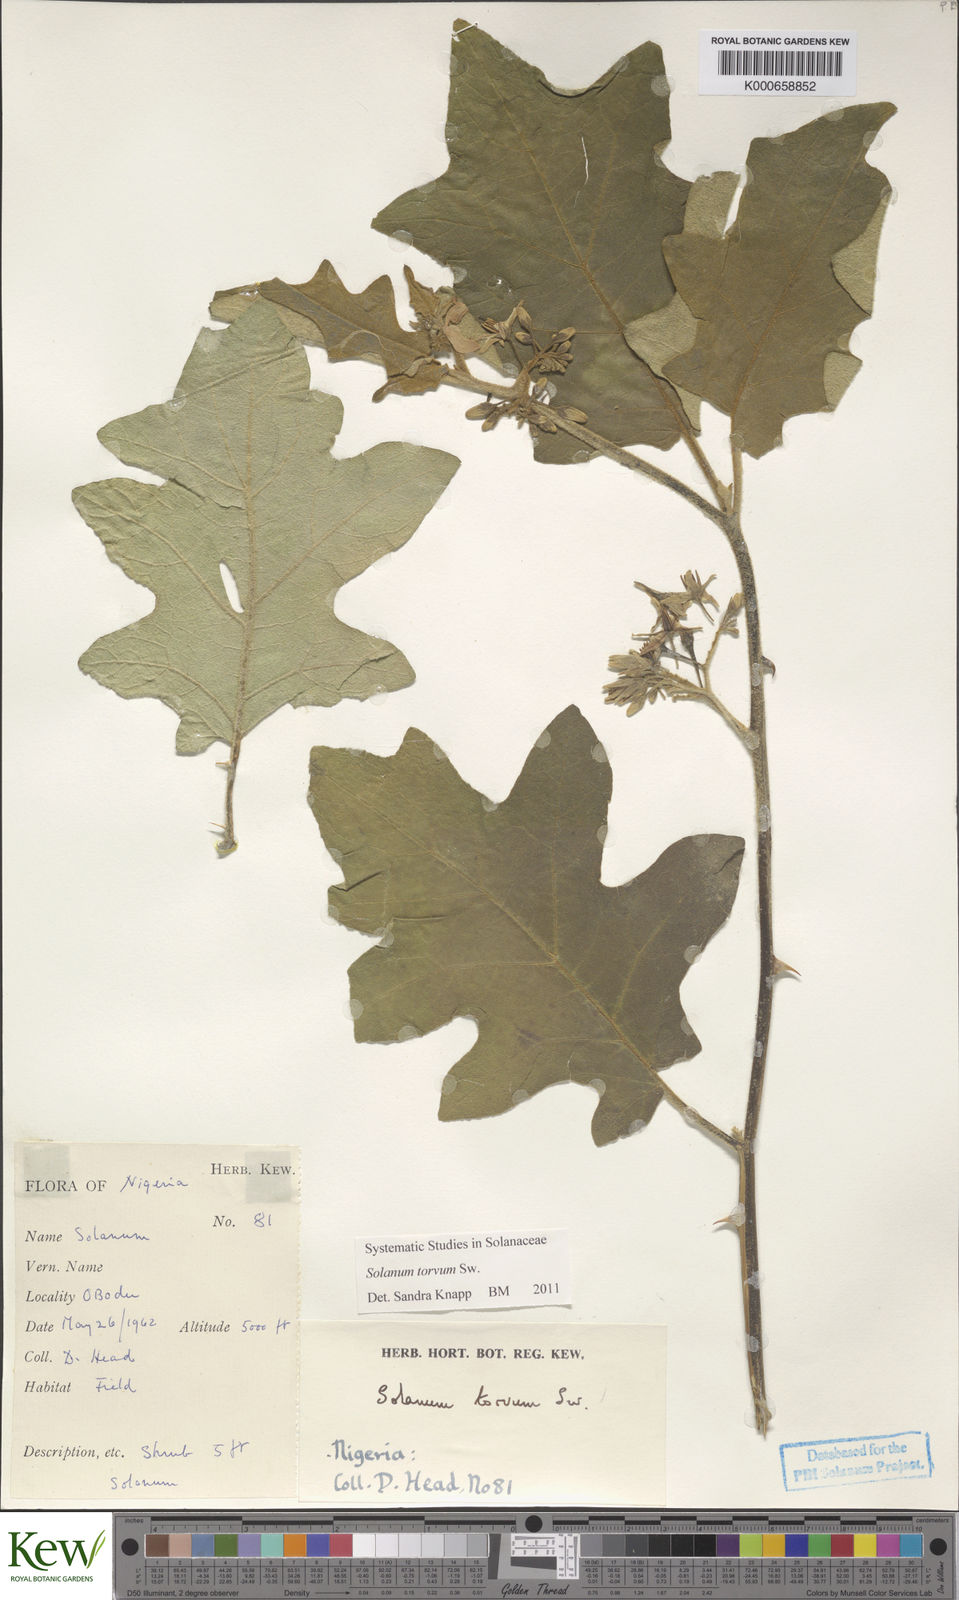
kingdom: Plantae
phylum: Tracheophyta
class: Magnoliopsida
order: Solanales
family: Solanaceae
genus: Solanum
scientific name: Solanum torvum
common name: Turkey berry
